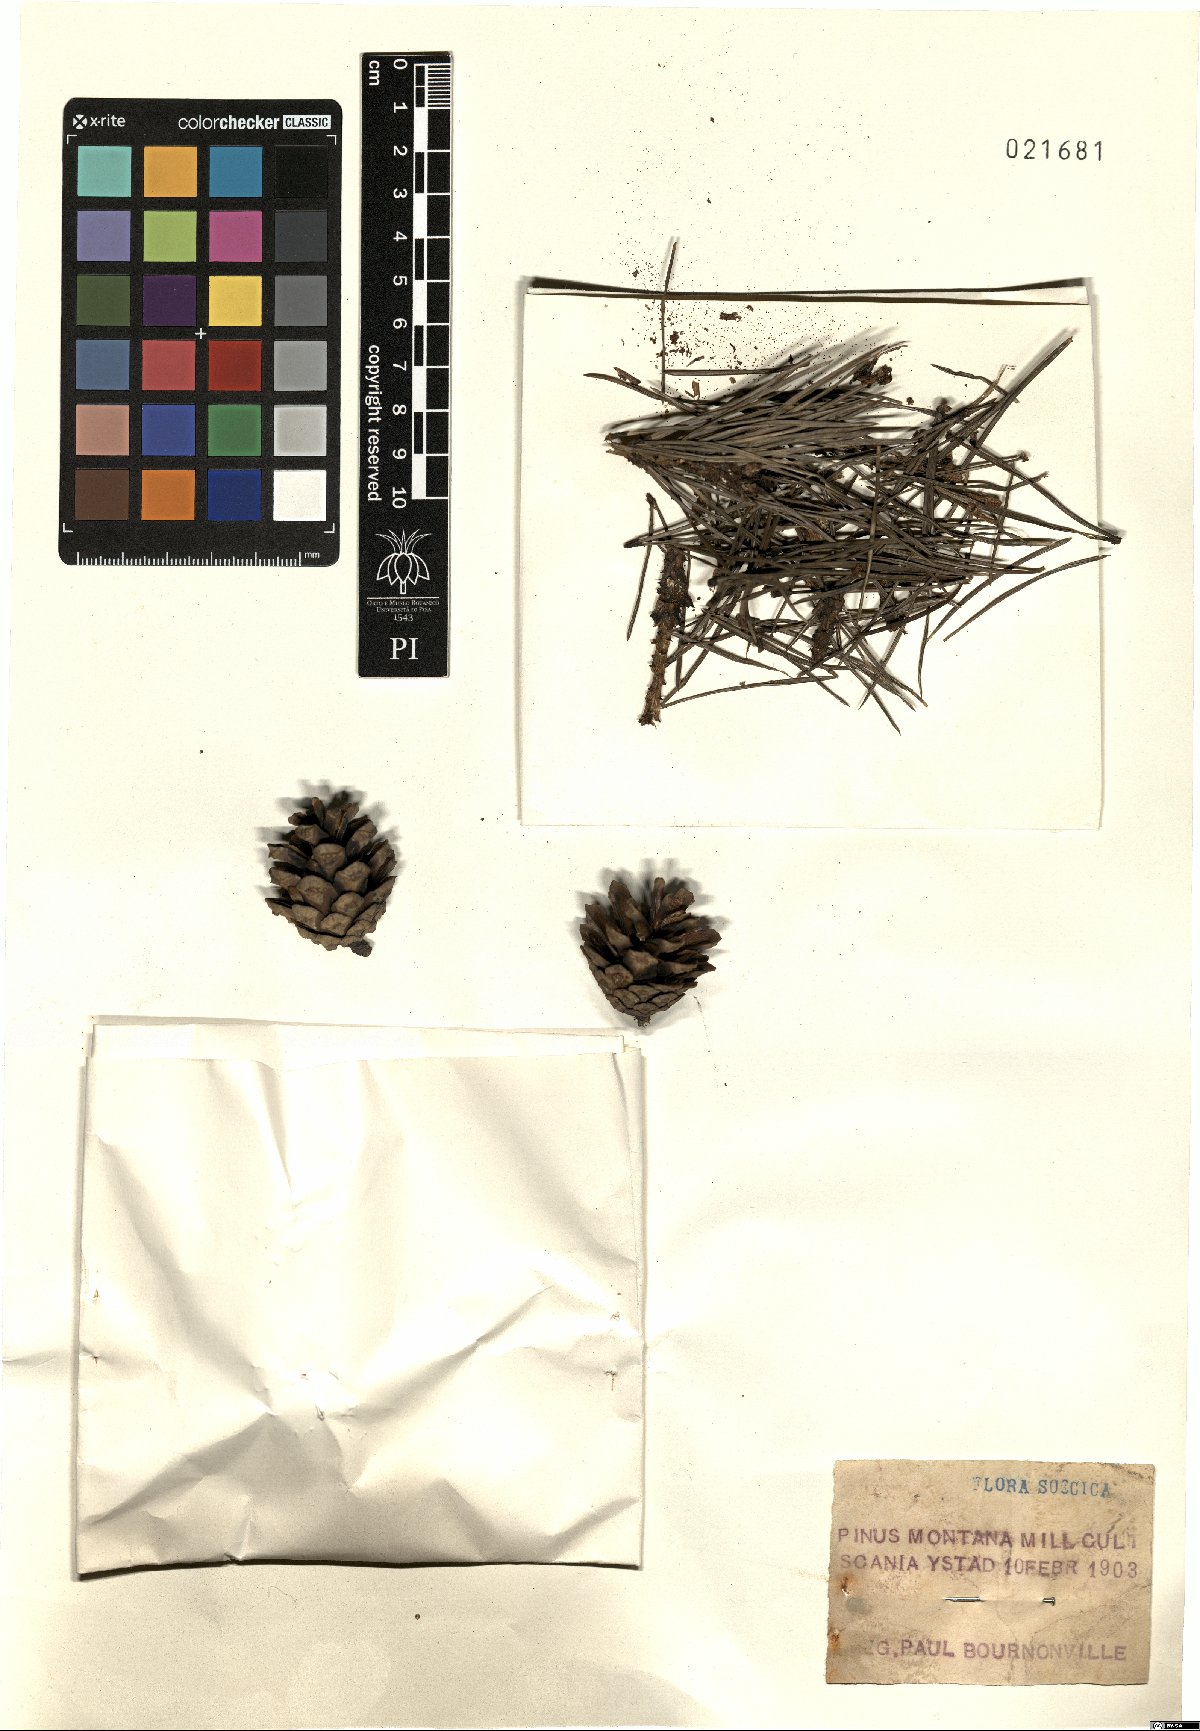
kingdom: Plantae
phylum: Tracheophyta
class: Pinopsida
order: Pinales
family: Pinaceae
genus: Pinus
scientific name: Pinus mugo
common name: Mugo pine
